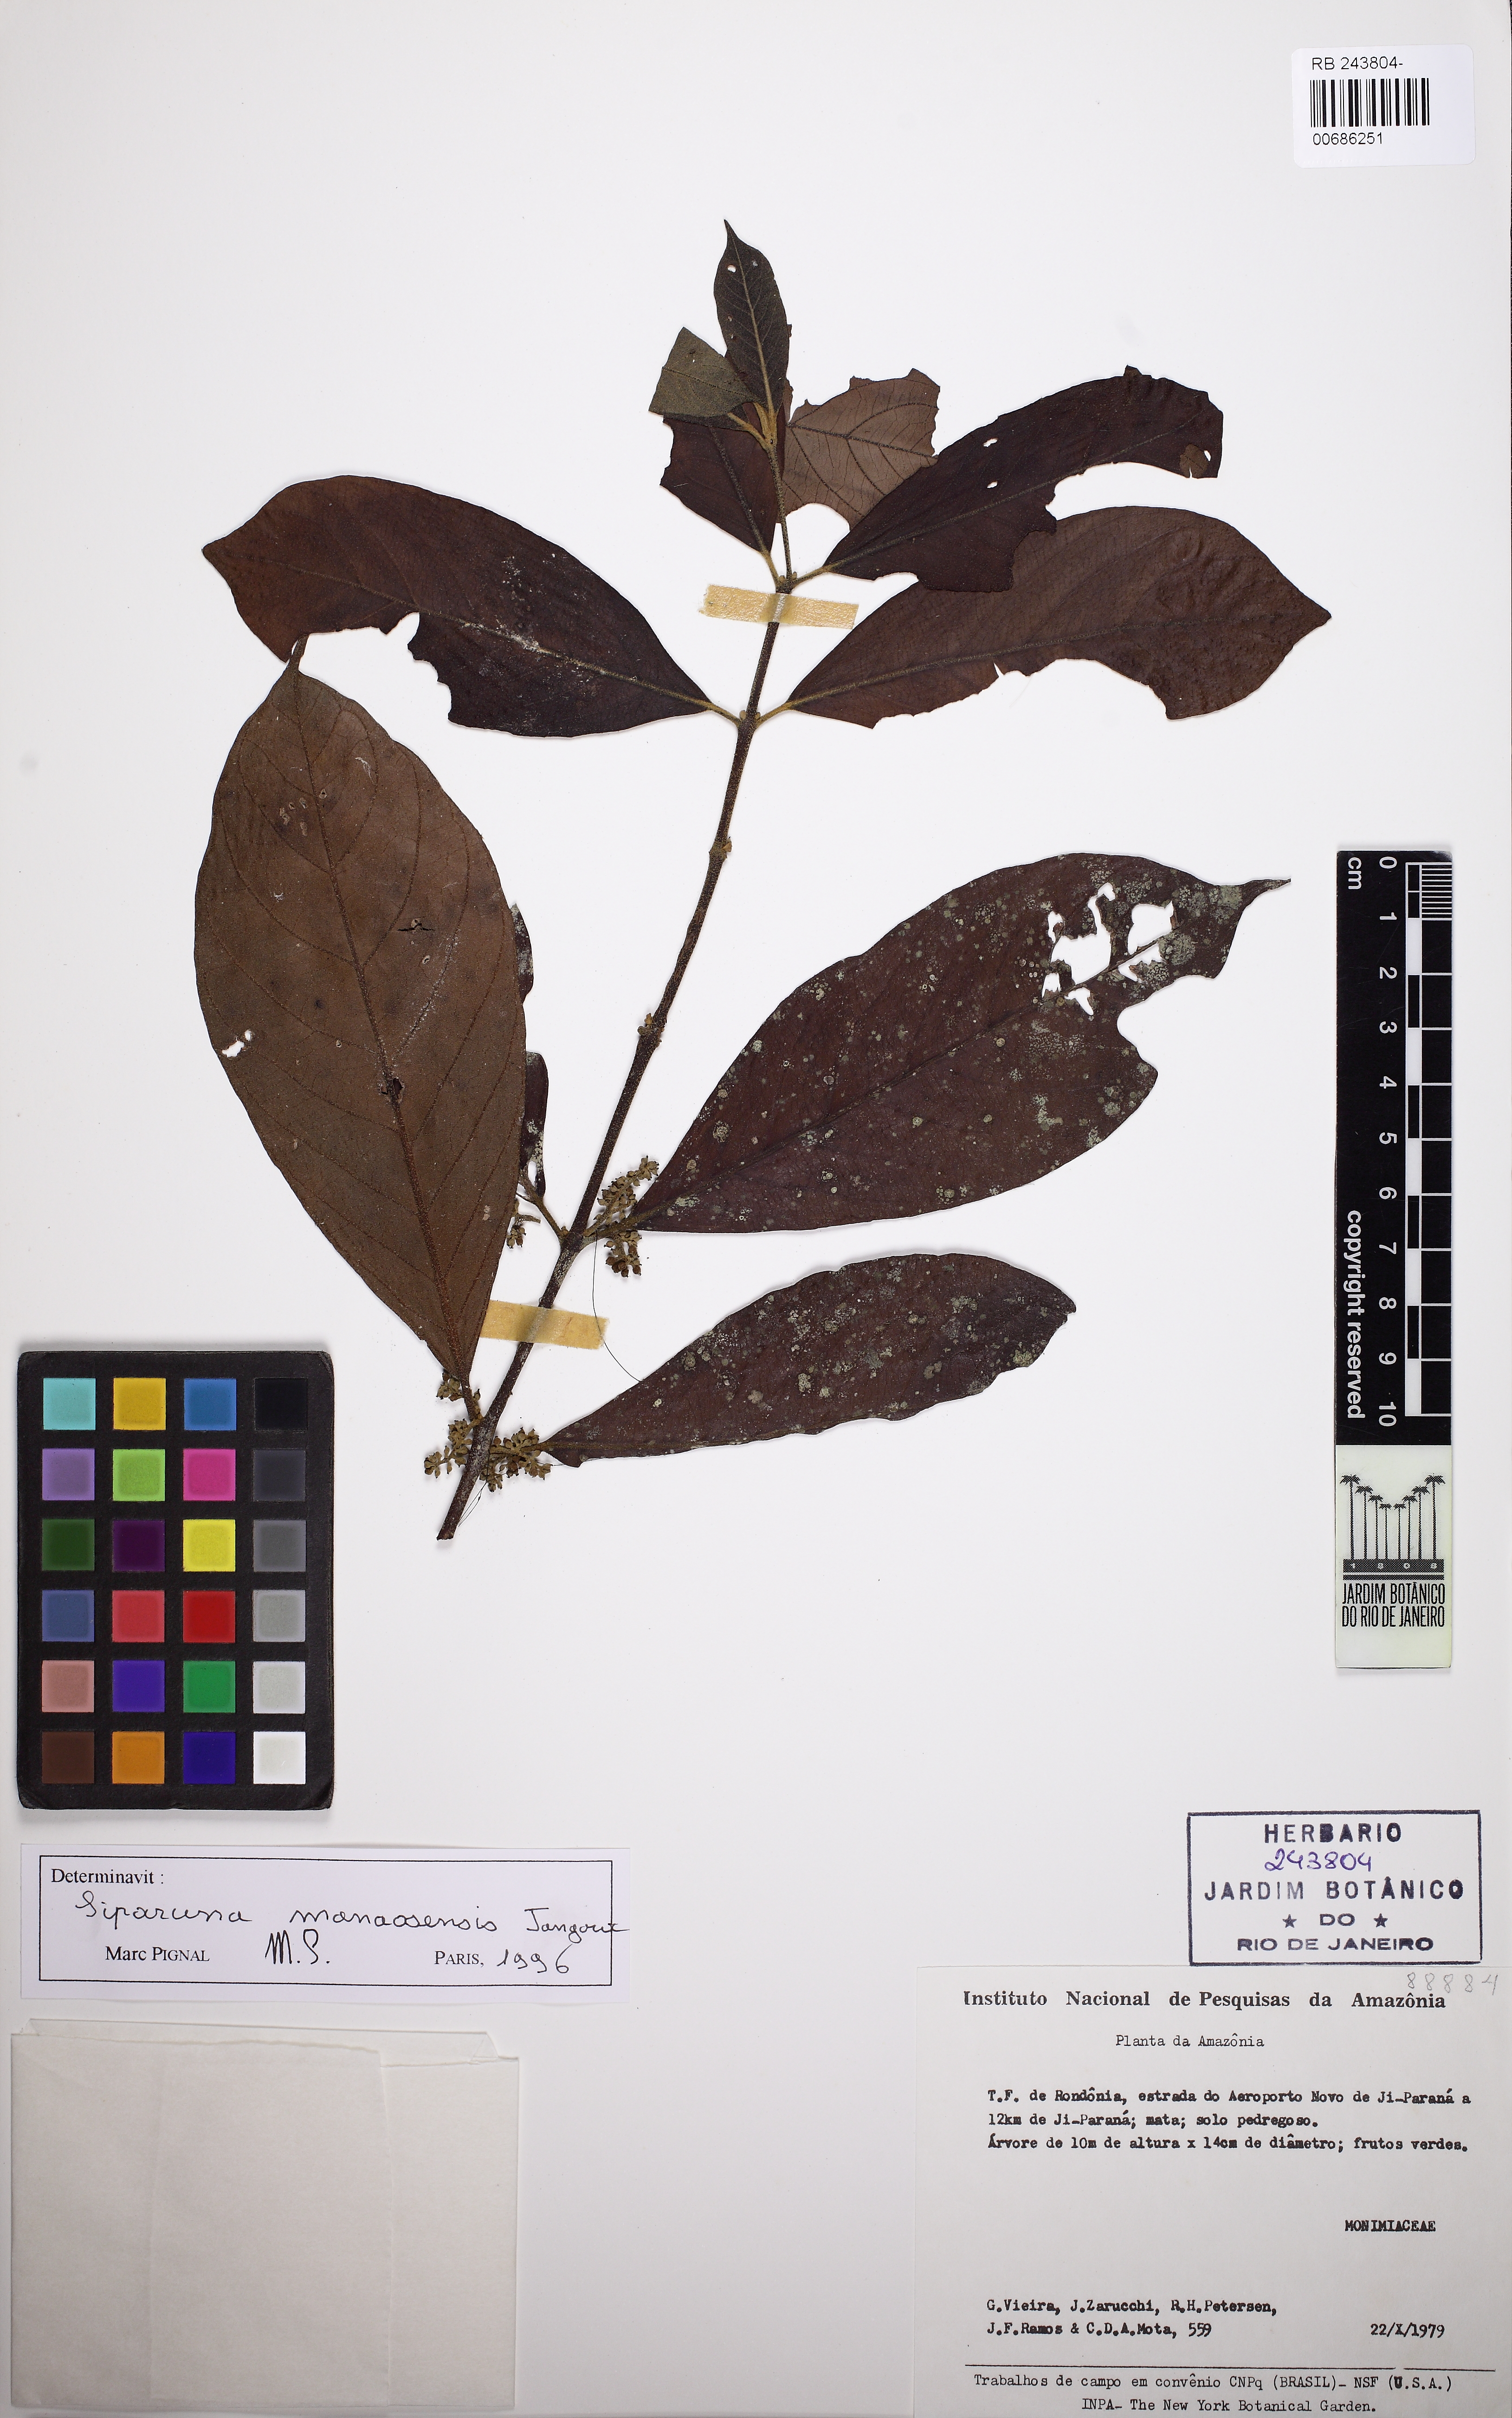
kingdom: Plantae
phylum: Tracheophyta
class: Magnoliopsida
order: Laurales
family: Siparunaceae
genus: Siparuna
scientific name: Siparuna reginae
